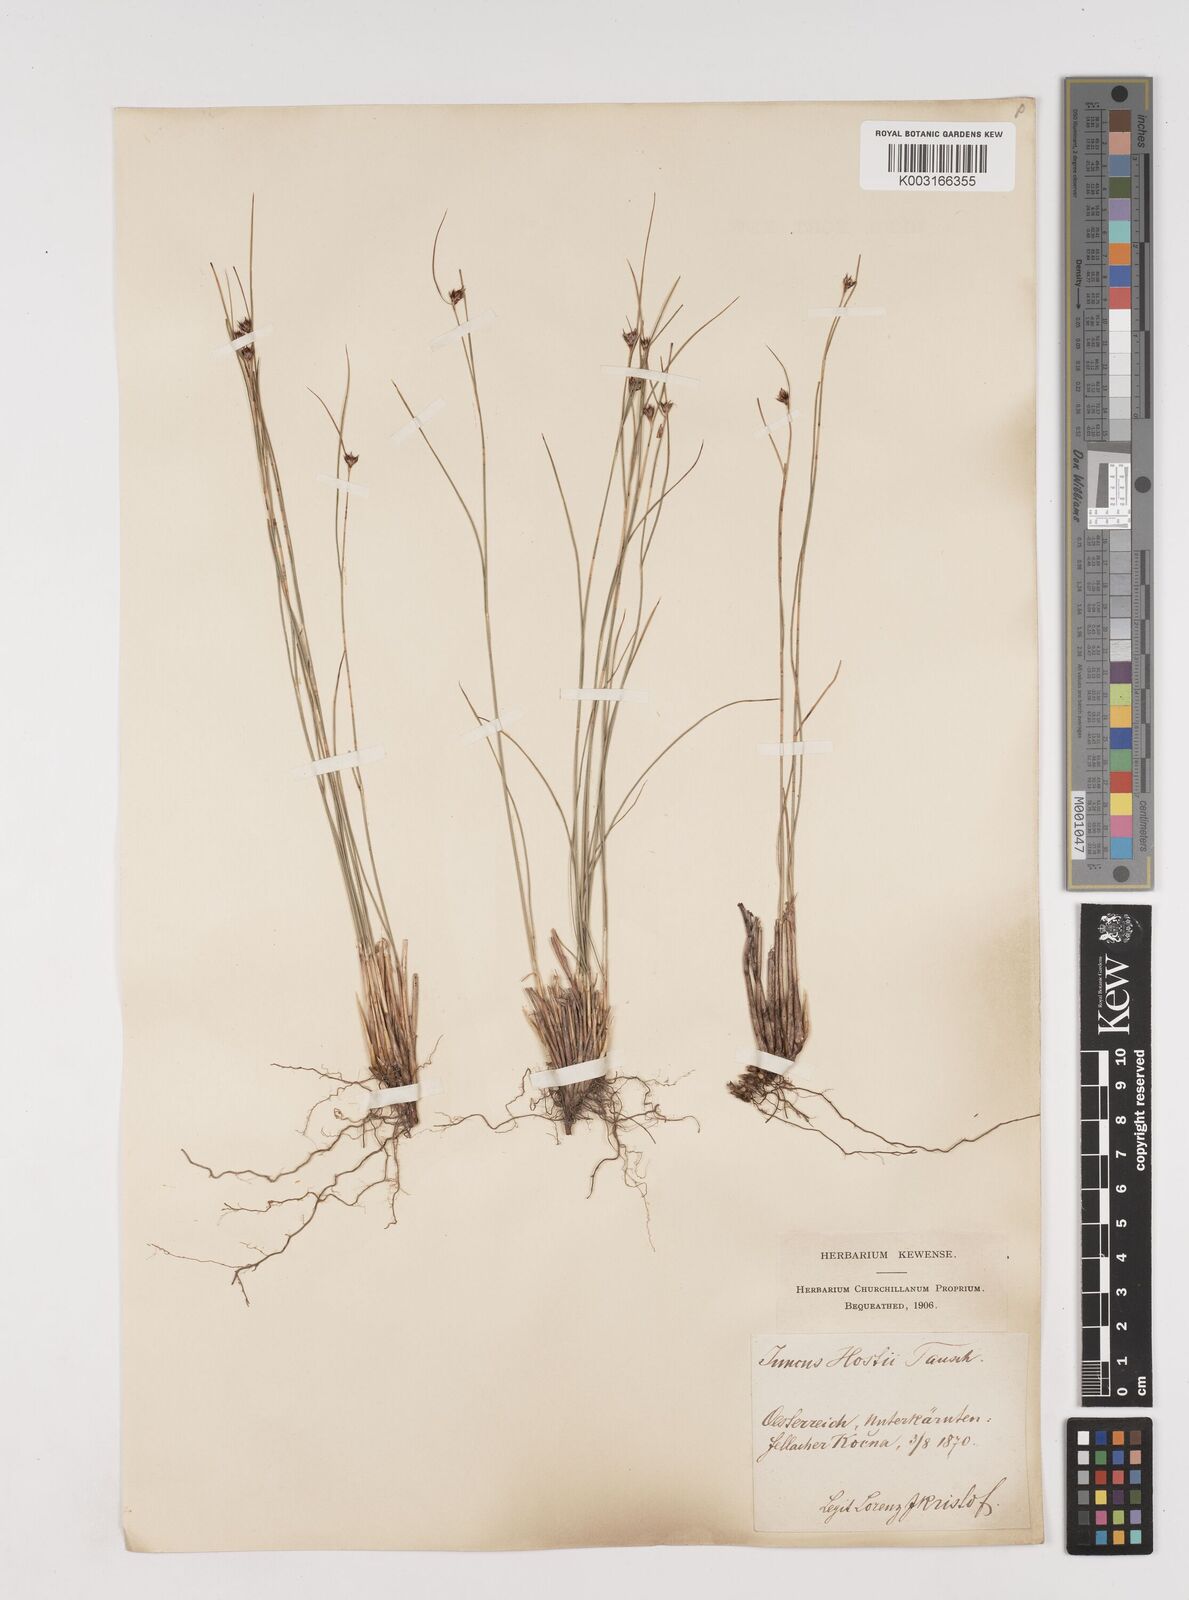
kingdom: Plantae
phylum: Tracheophyta
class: Liliopsida
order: Poales
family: Juncaceae
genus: Oreojuncus
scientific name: Oreojuncus trifidus
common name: Highland rush
